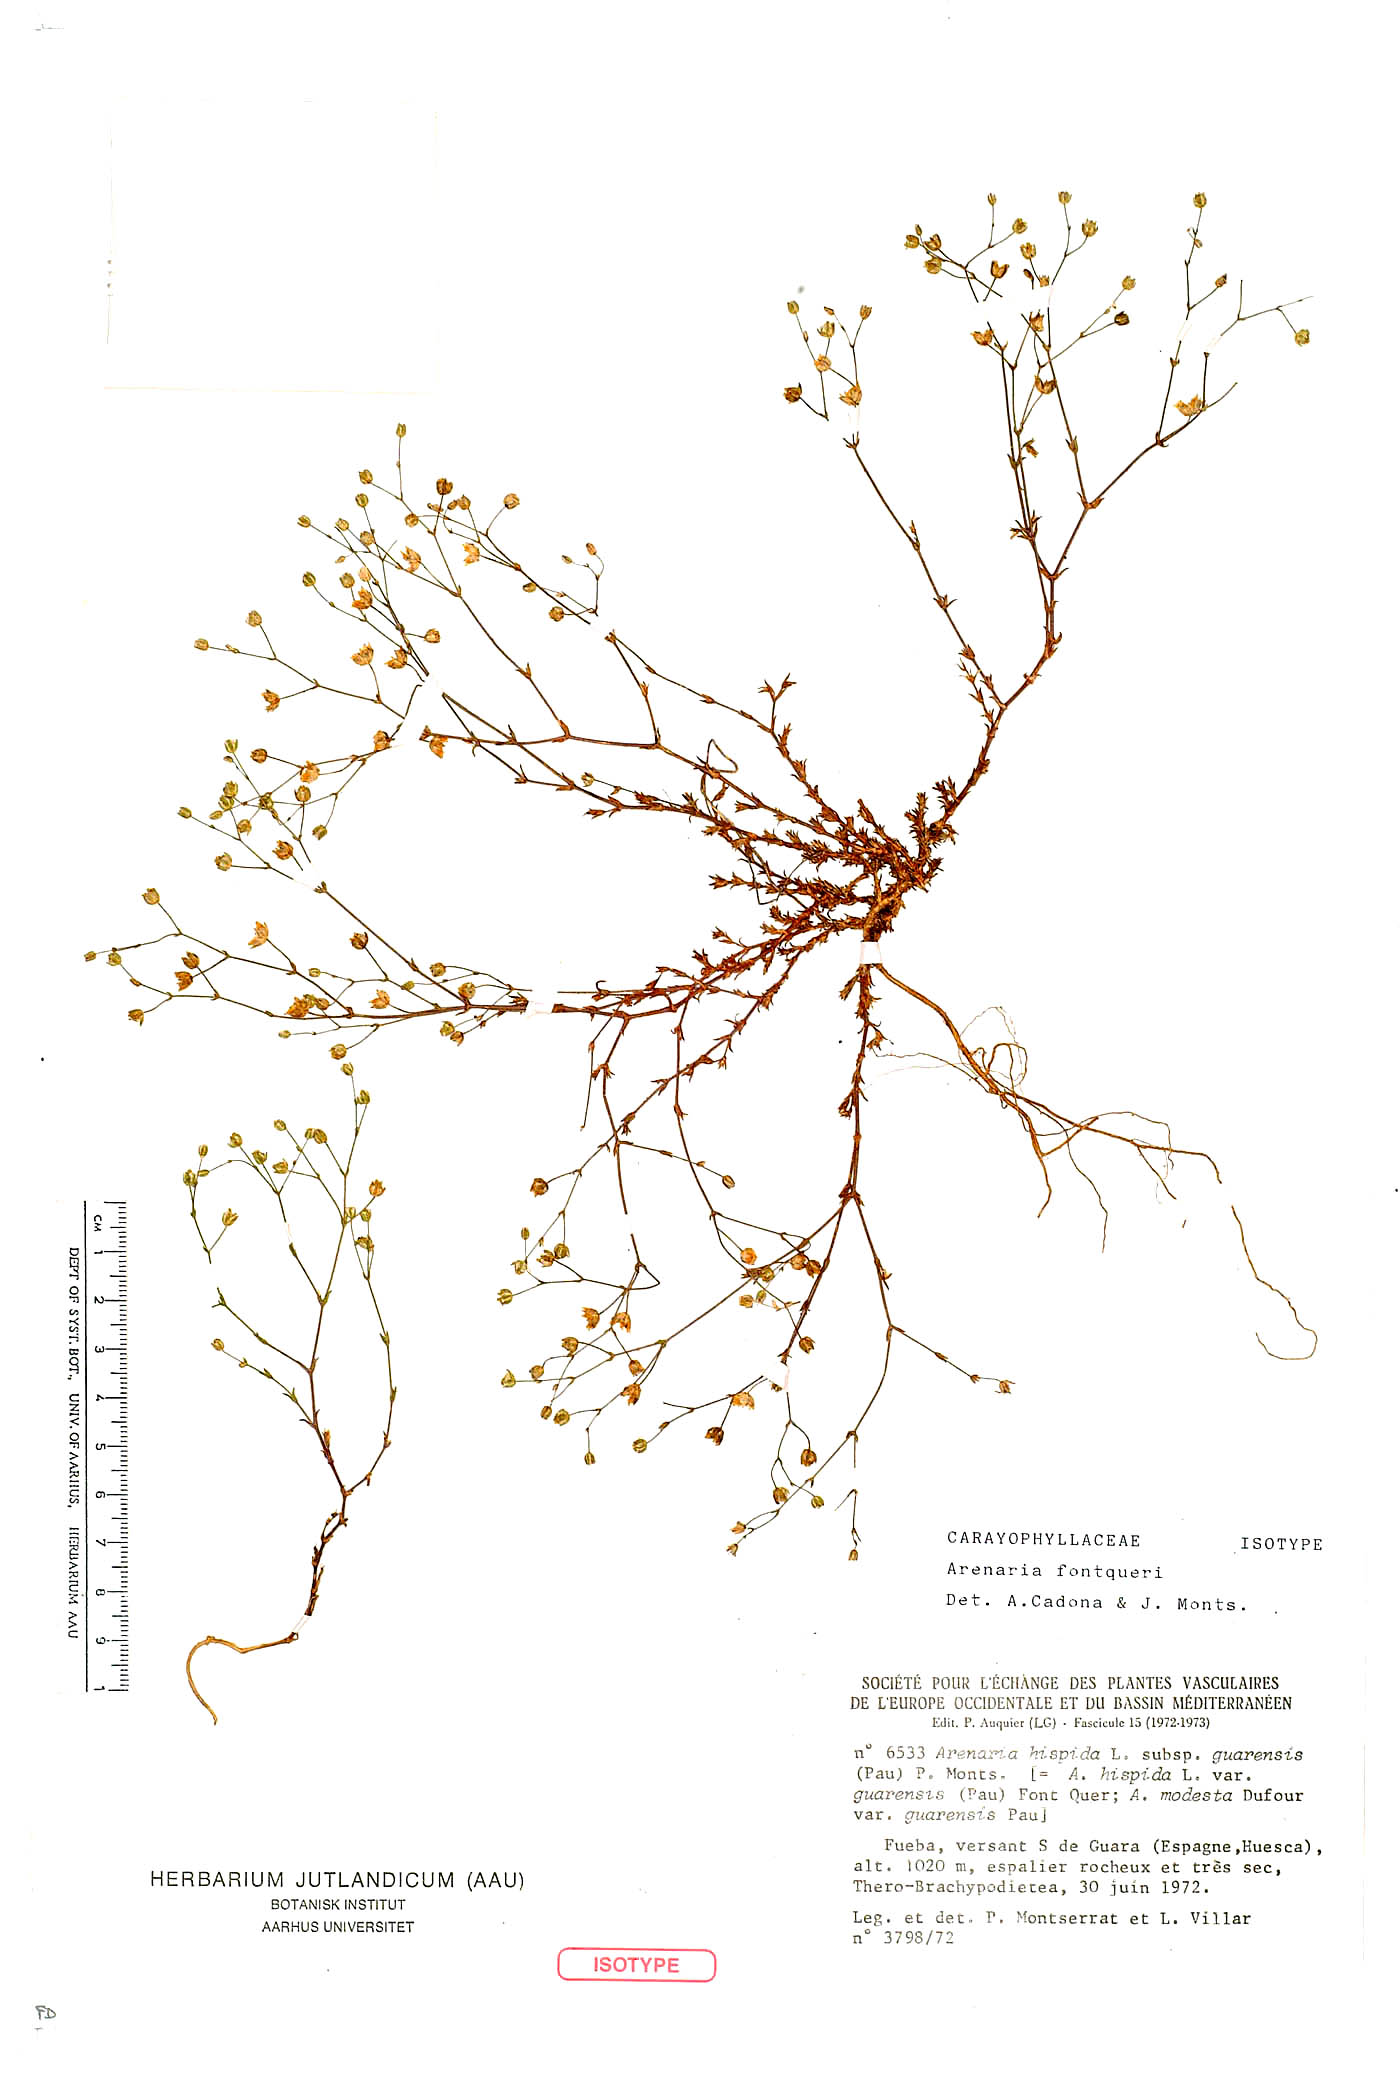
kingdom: Plantae
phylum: Tracheophyta
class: Magnoliopsida
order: Caryophyllales
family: Caryophyllaceae
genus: Arenaria
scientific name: Arenaria fontqueri
